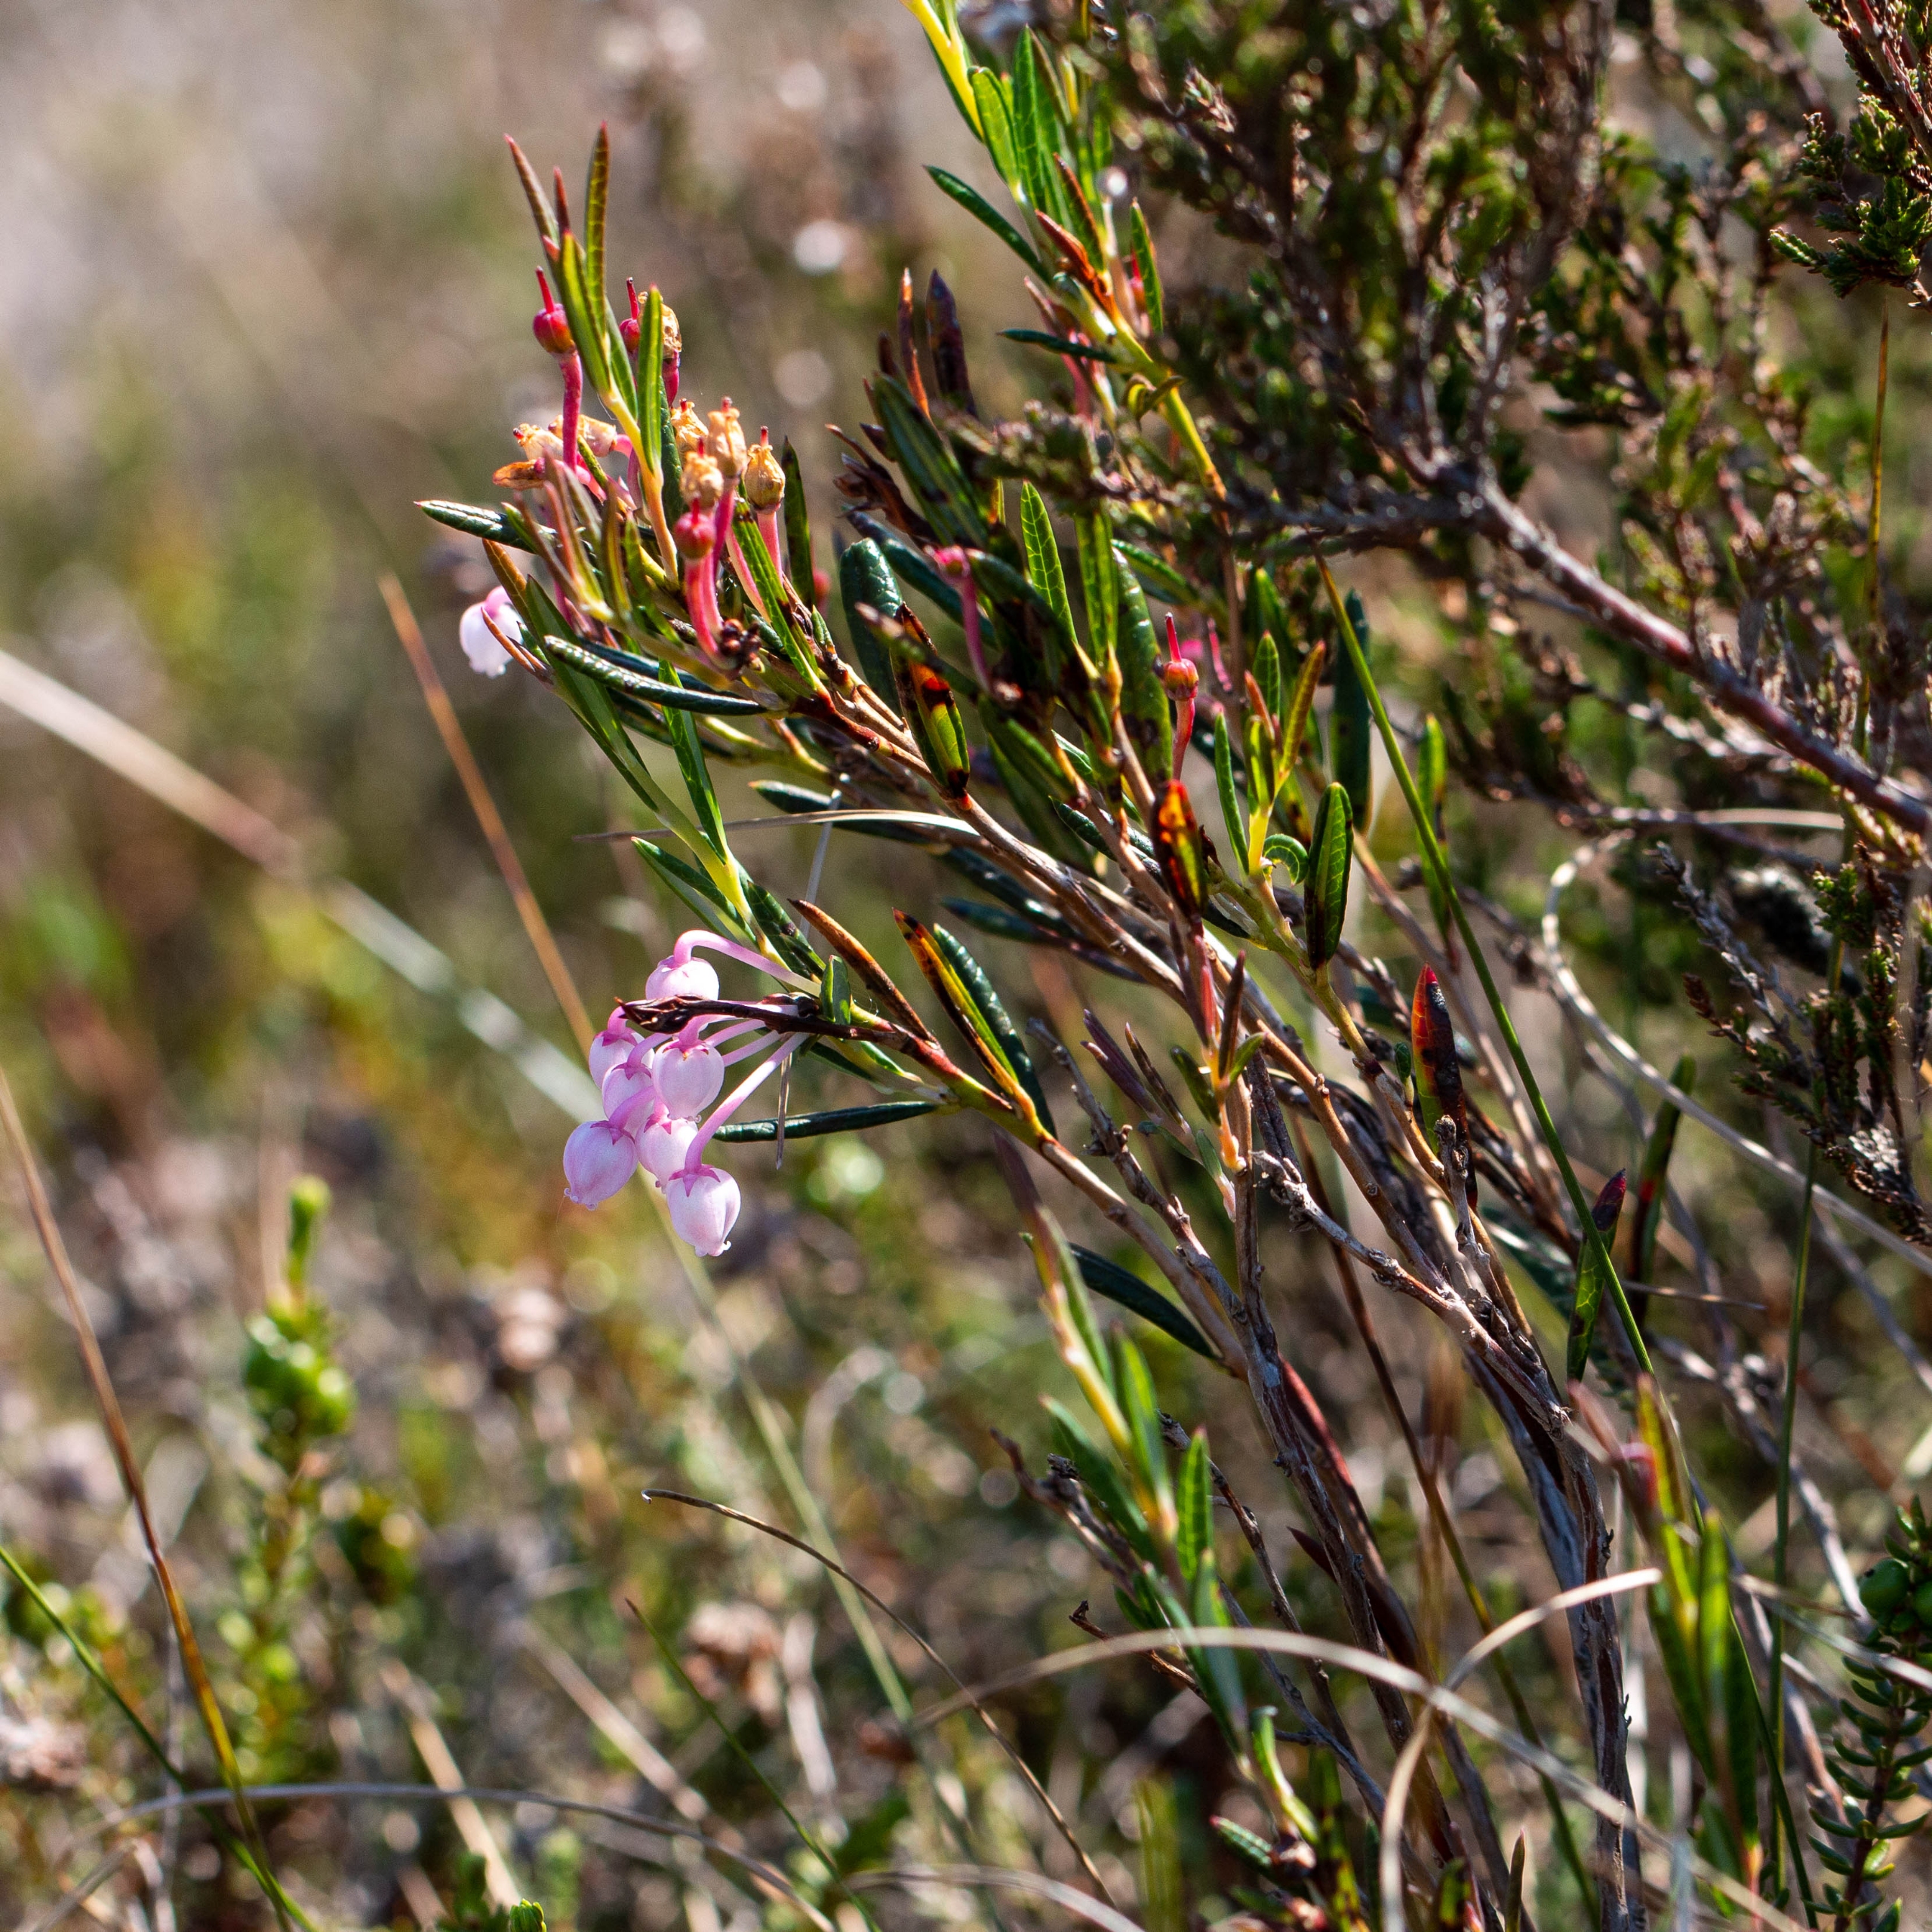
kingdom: Plantae
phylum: Tracheophyta
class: Magnoliopsida
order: Ericales
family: Ericaceae
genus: Andromeda
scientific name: Andromeda polifolia
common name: Rosmarinlyng
